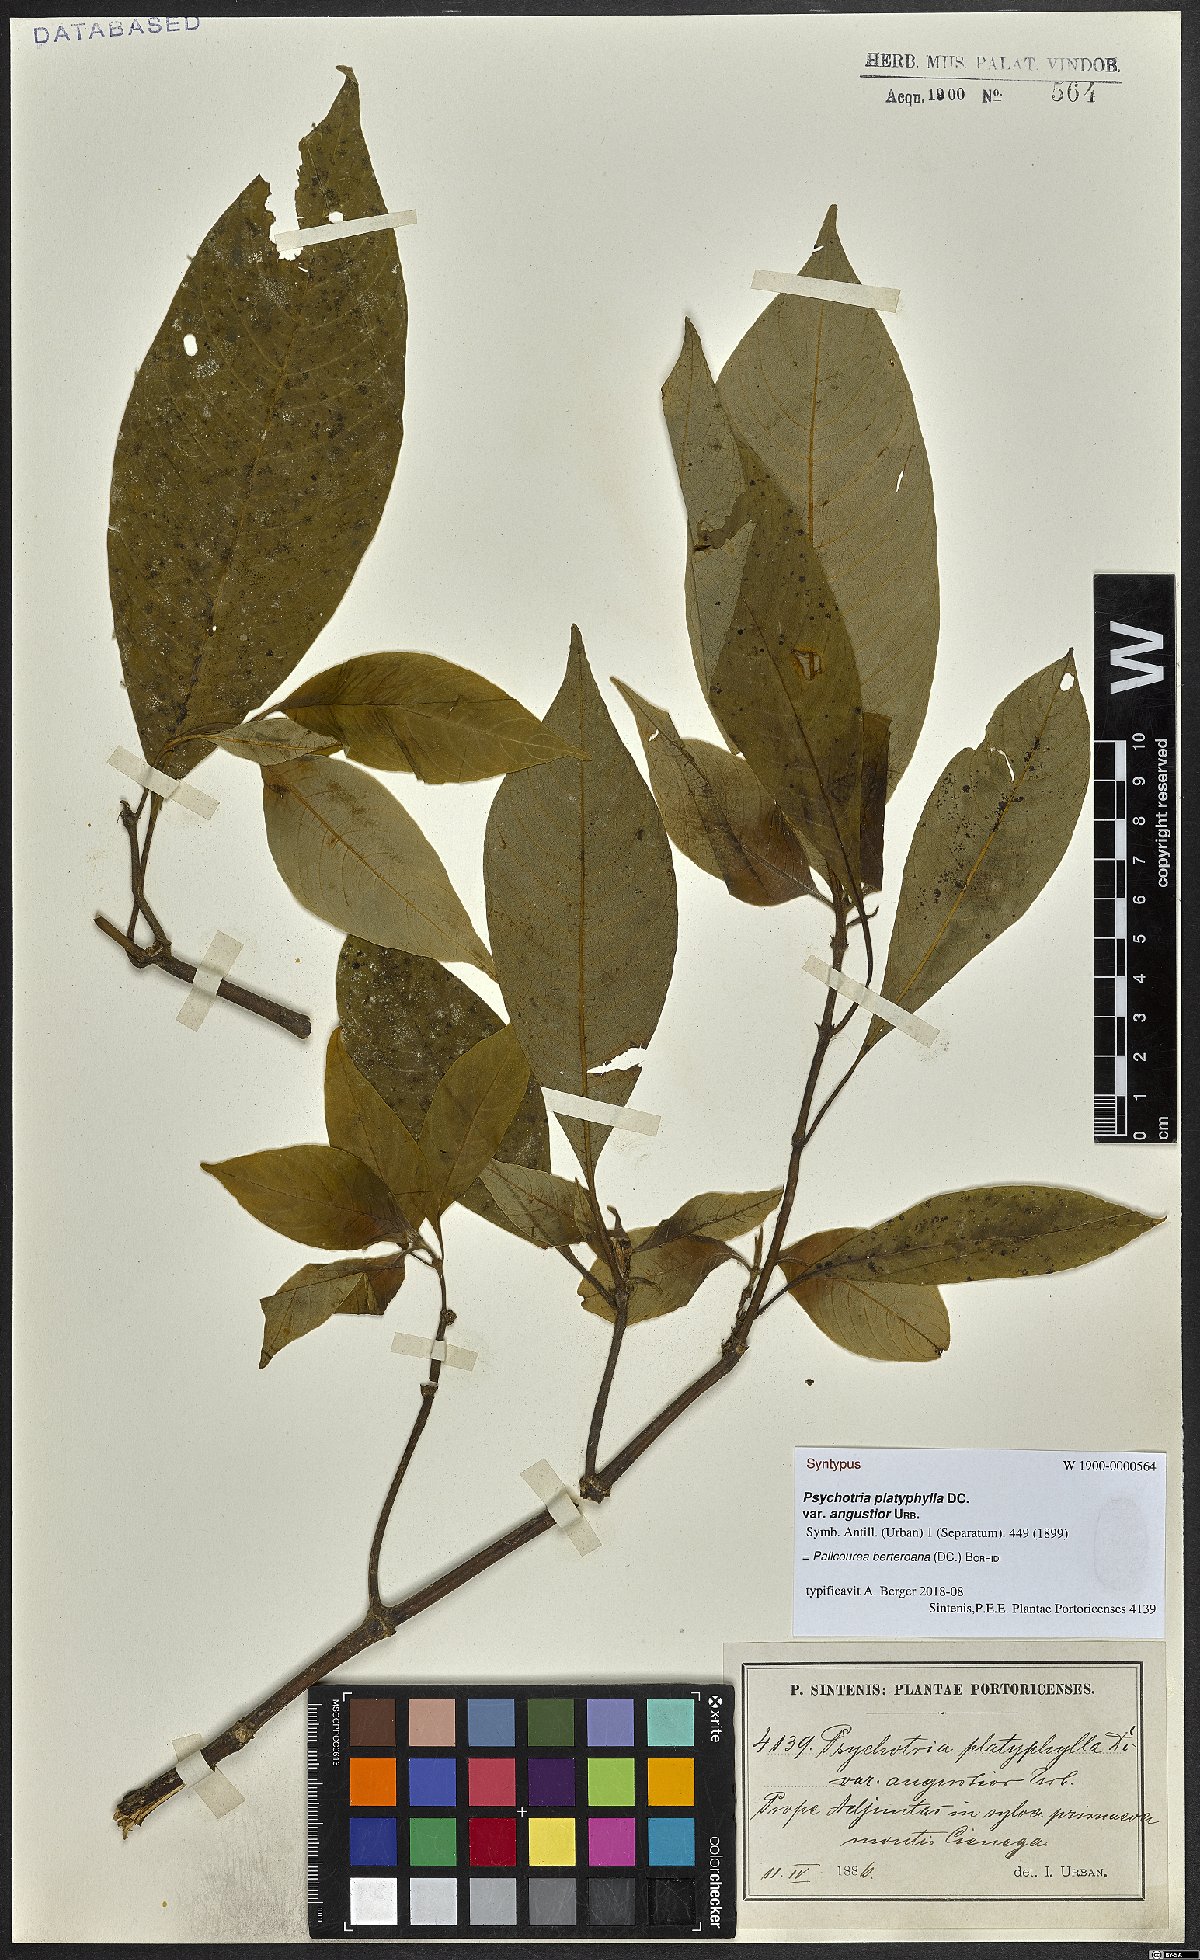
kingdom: Plantae
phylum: Tracheophyta
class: Magnoliopsida
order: Gentianales
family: Rubiaceae
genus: Palicourea
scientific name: Palicourea berteroana
